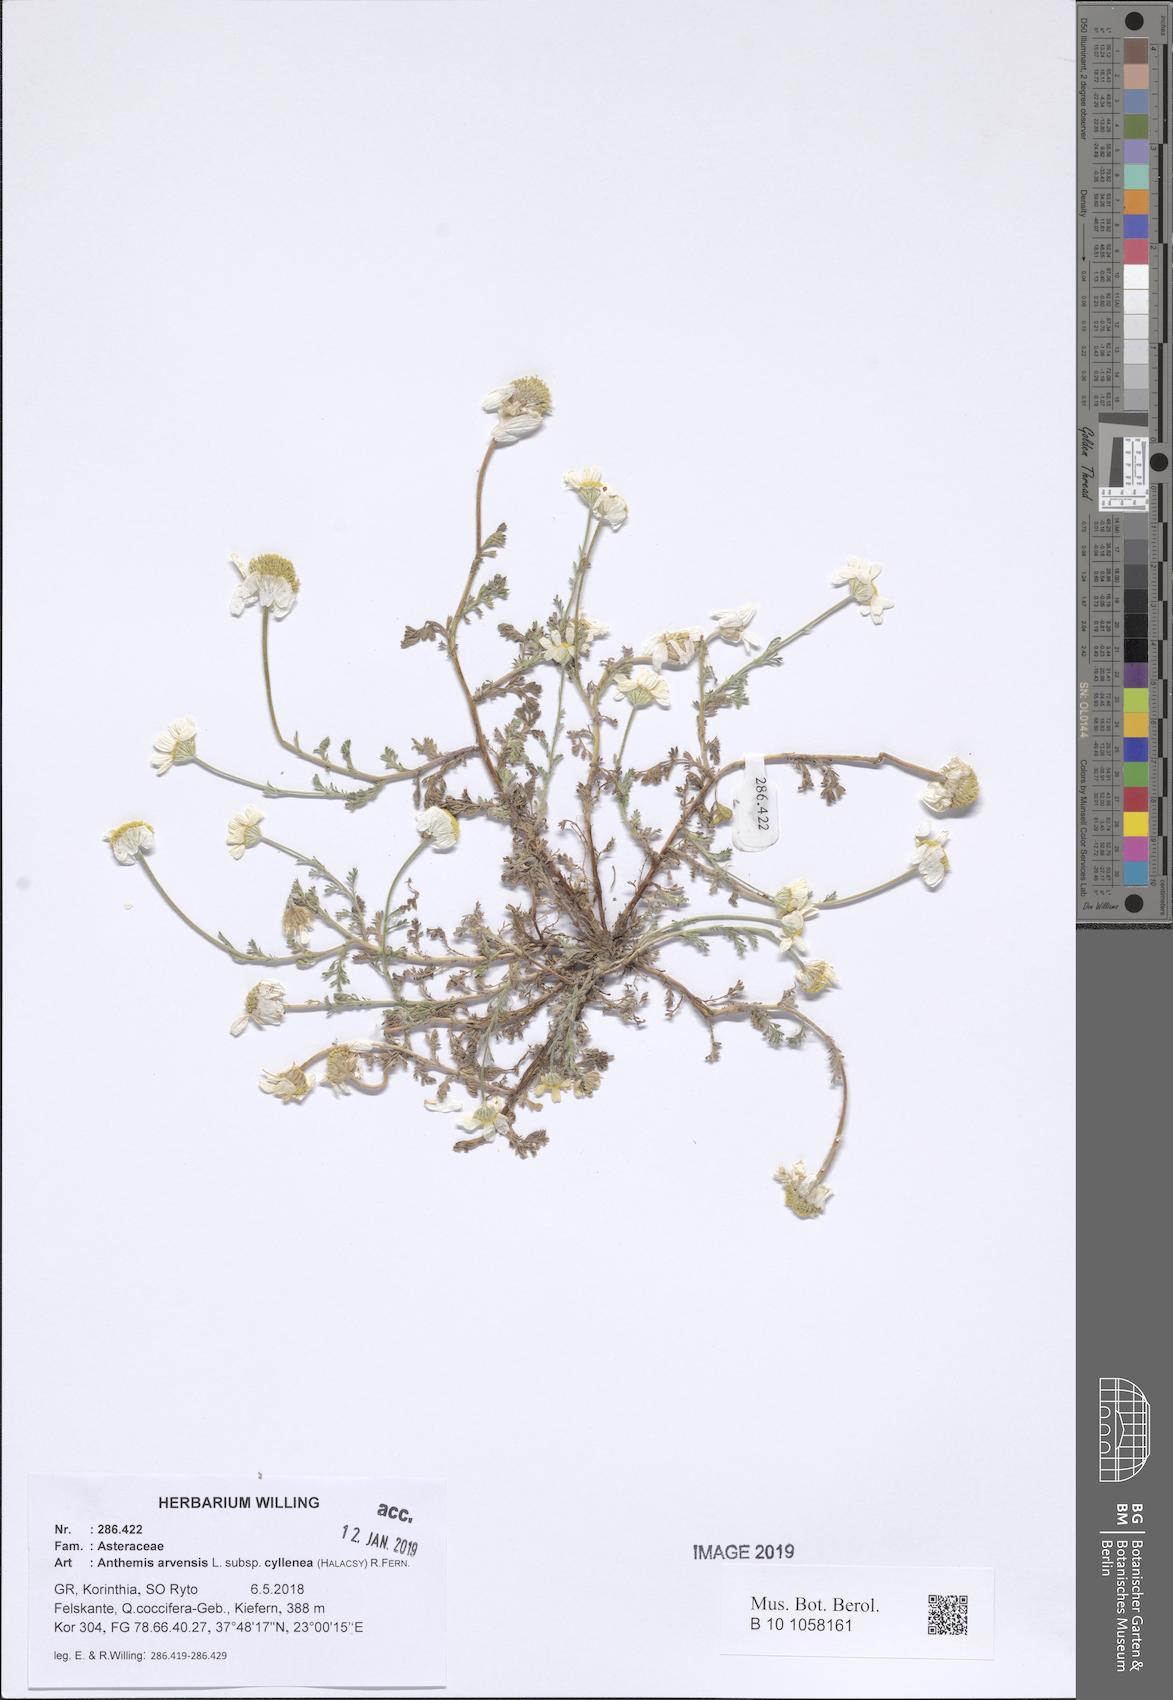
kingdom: Plantae
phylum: Tracheophyta
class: Magnoliopsida
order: Asterales
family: Asteraceae
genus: Anthemis
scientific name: Anthemis arvensis
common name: Corn chamomile
